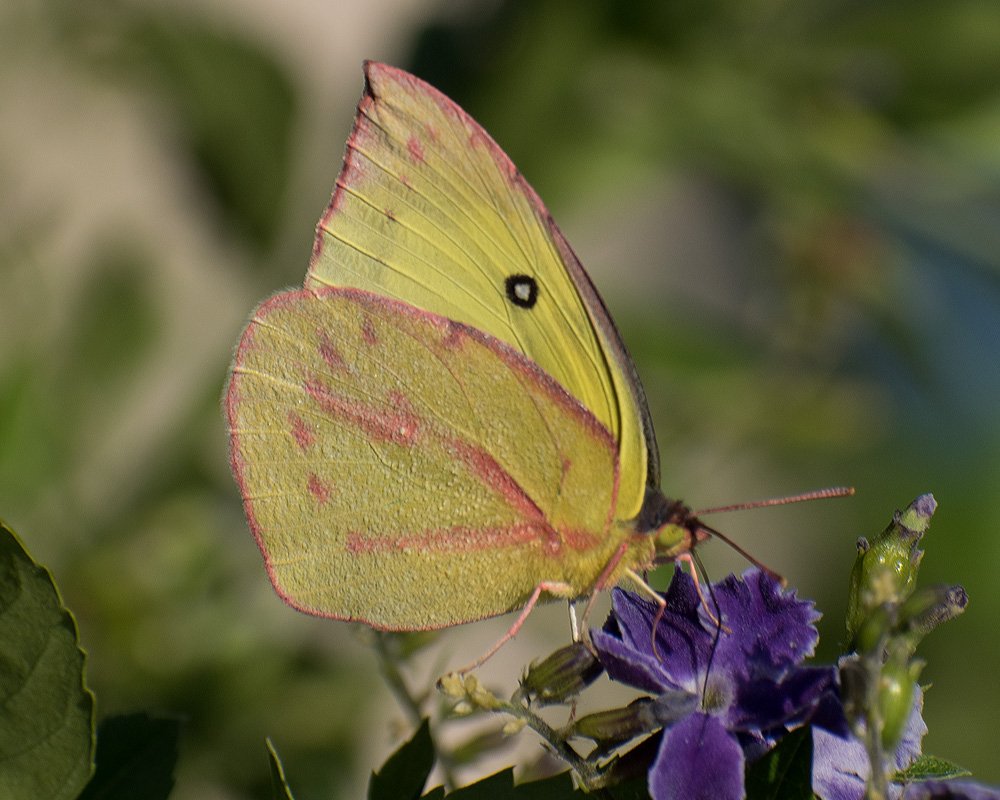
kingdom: Animalia
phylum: Arthropoda
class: Insecta
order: Lepidoptera
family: Pieridae
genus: Zerene
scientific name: Zerene cesonia
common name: Southern Dogface
